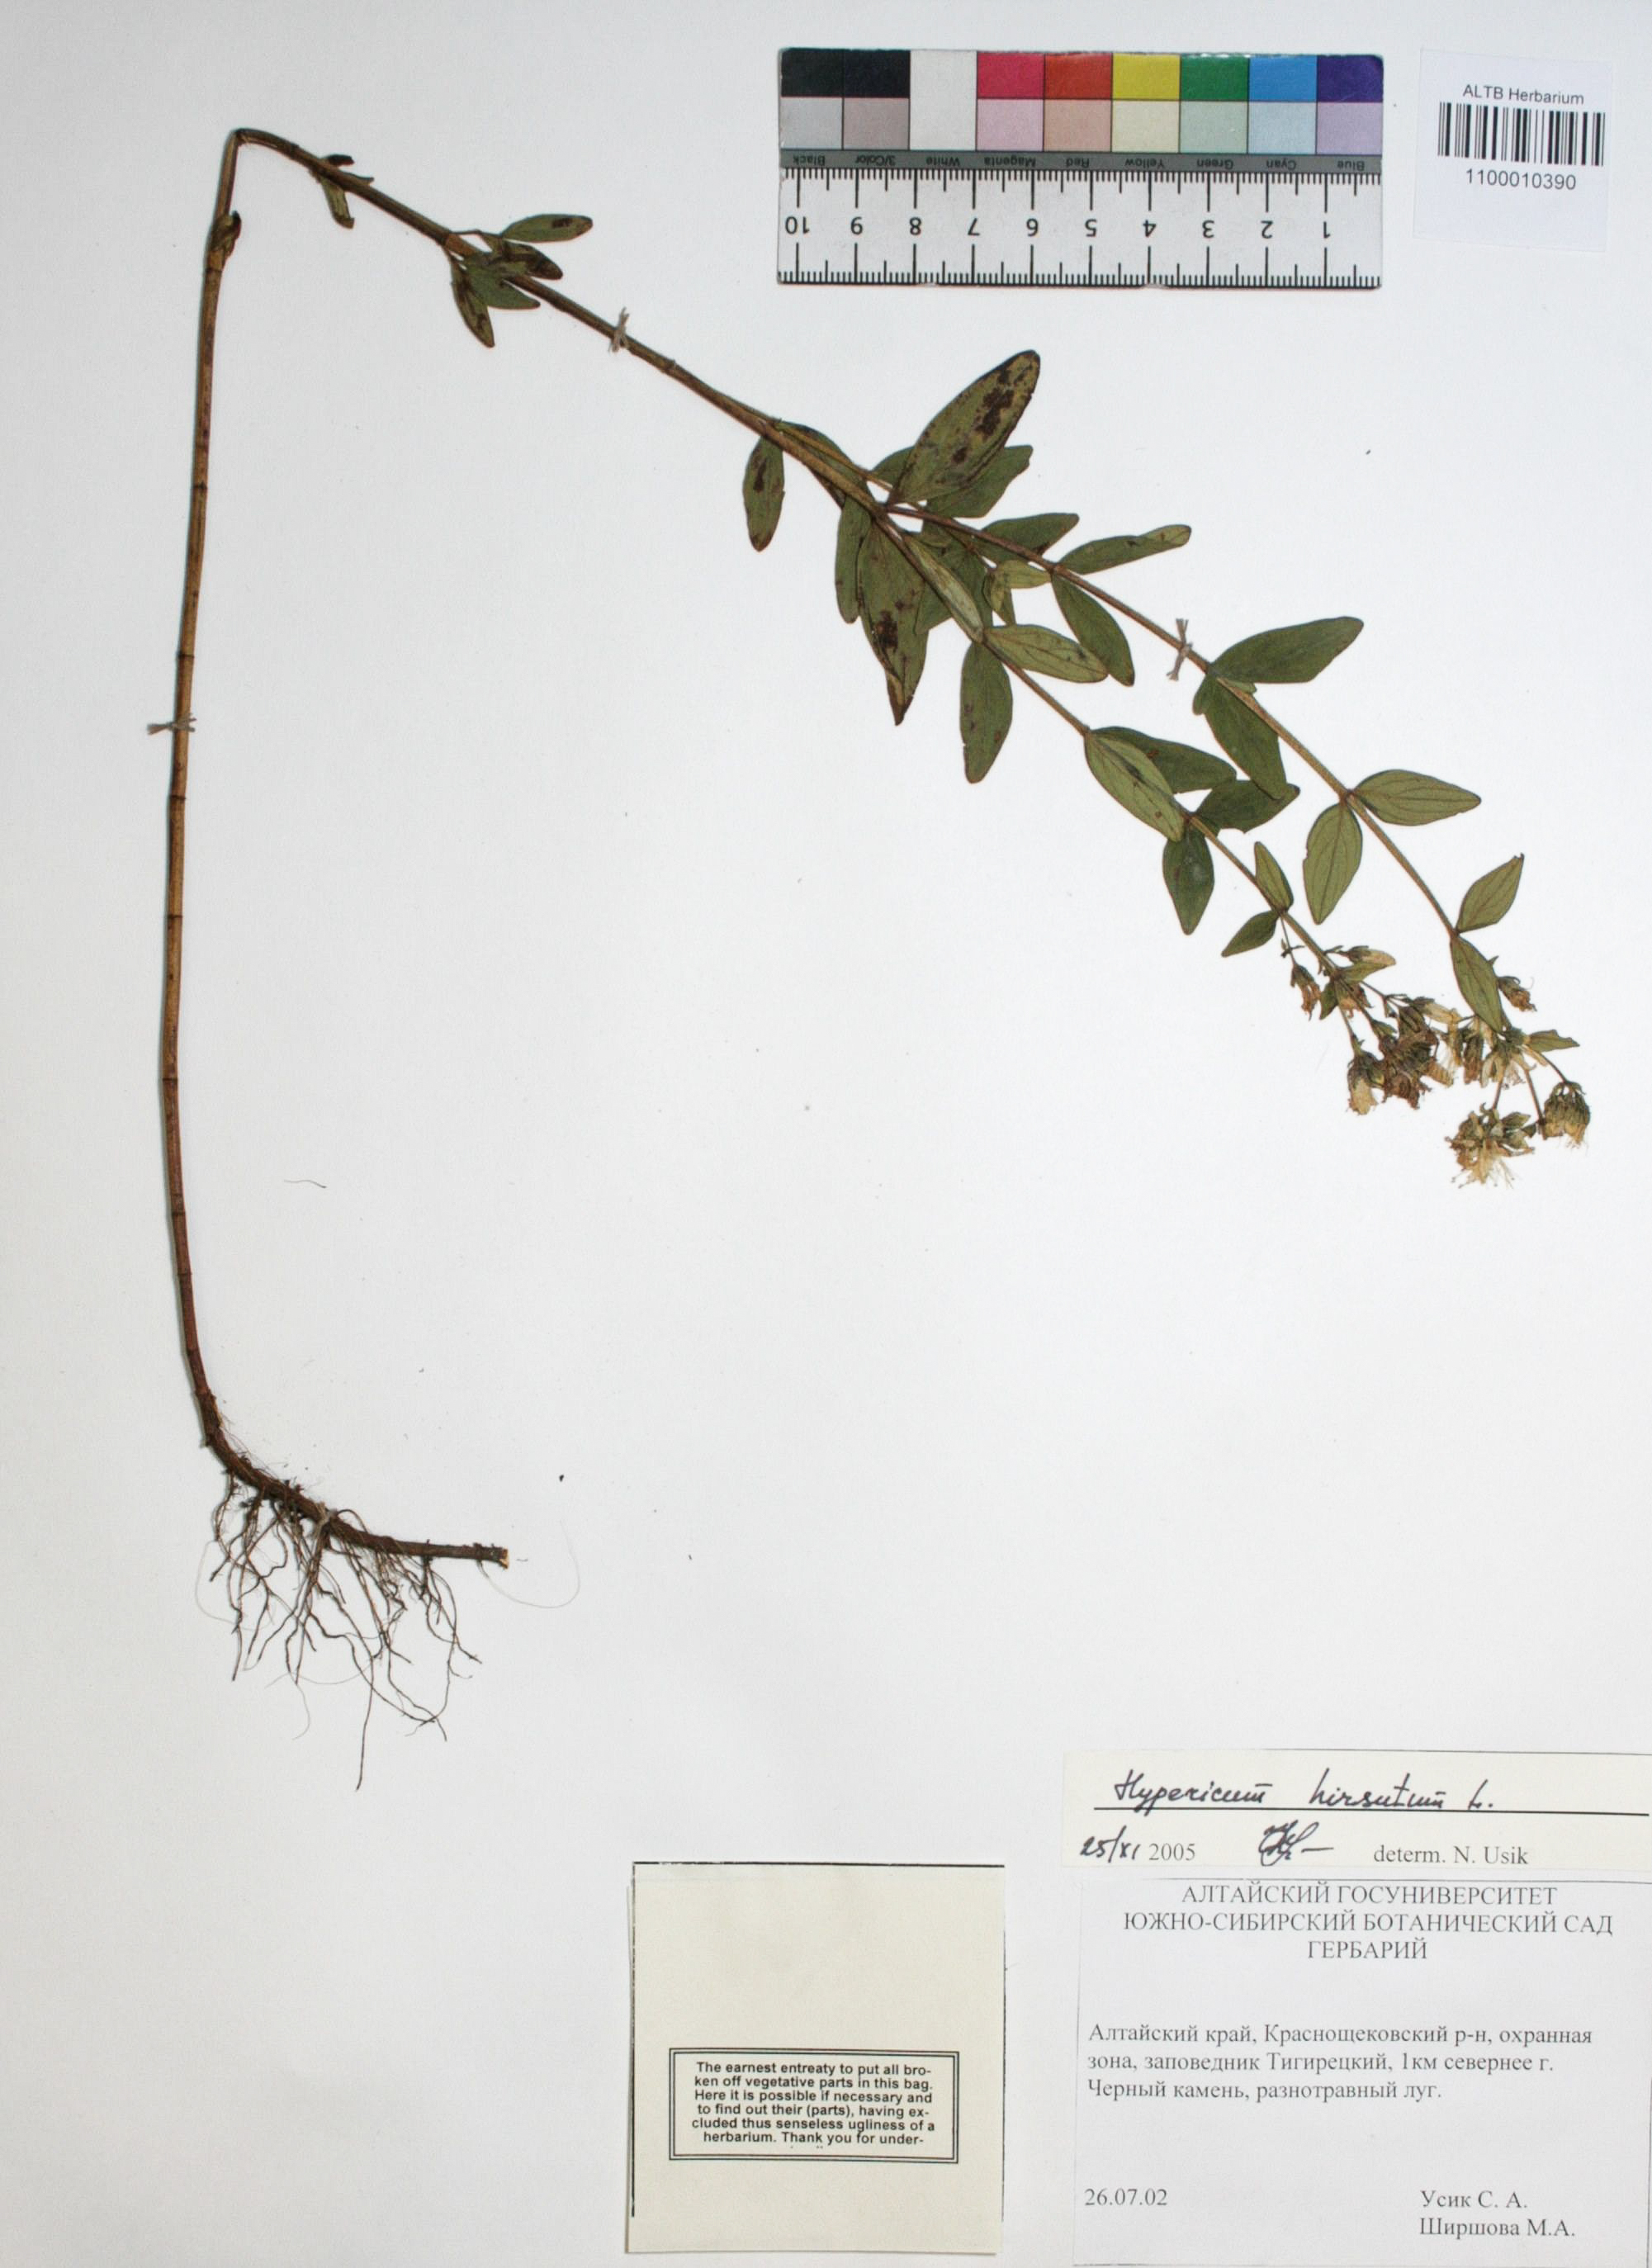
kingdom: Plantae
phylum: Tracheophyta
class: Magnoliopsida
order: Malpighiales
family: Hypericaceae
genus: Hypericum
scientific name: Hypericum hirsutum
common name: Hairy st. john's-wort
